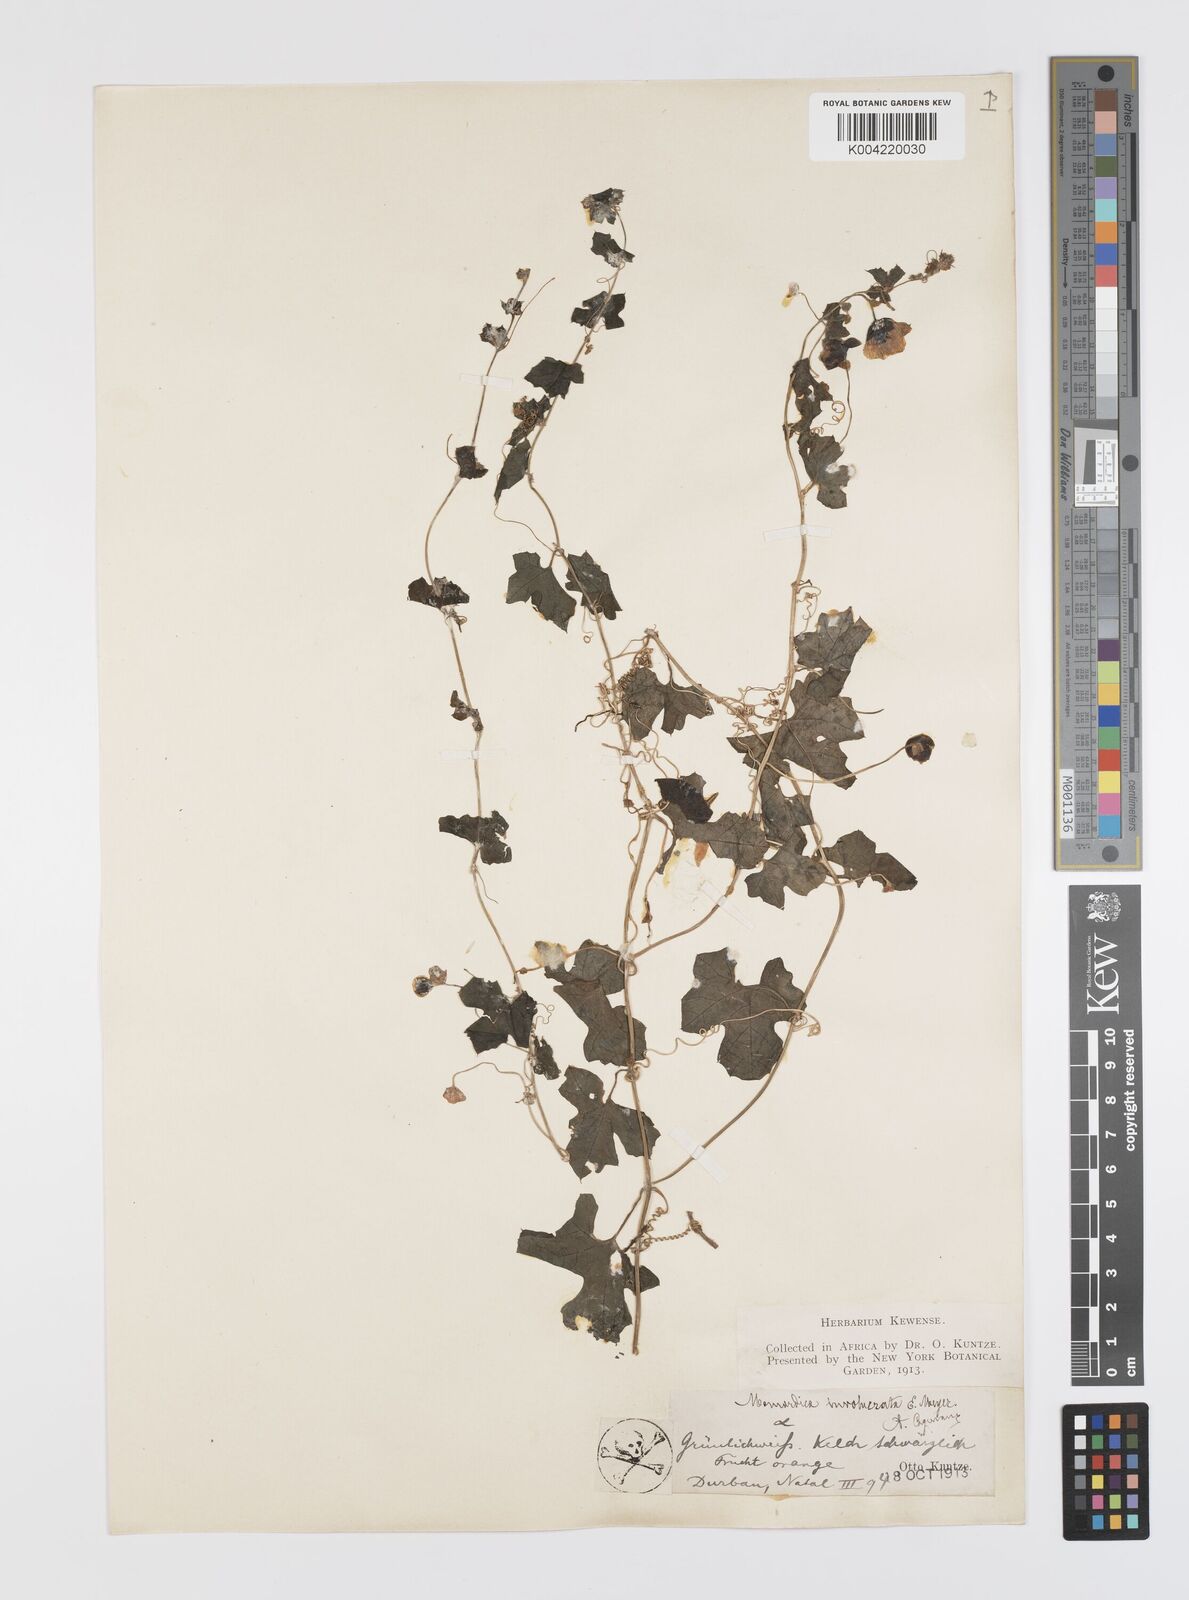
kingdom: Plantae
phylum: Tracheophyta
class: Magnoliopsida
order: Cucurbitales
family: Cucurbitaceae
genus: Momordica
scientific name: Momordica balsamina
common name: Southern balsampear
